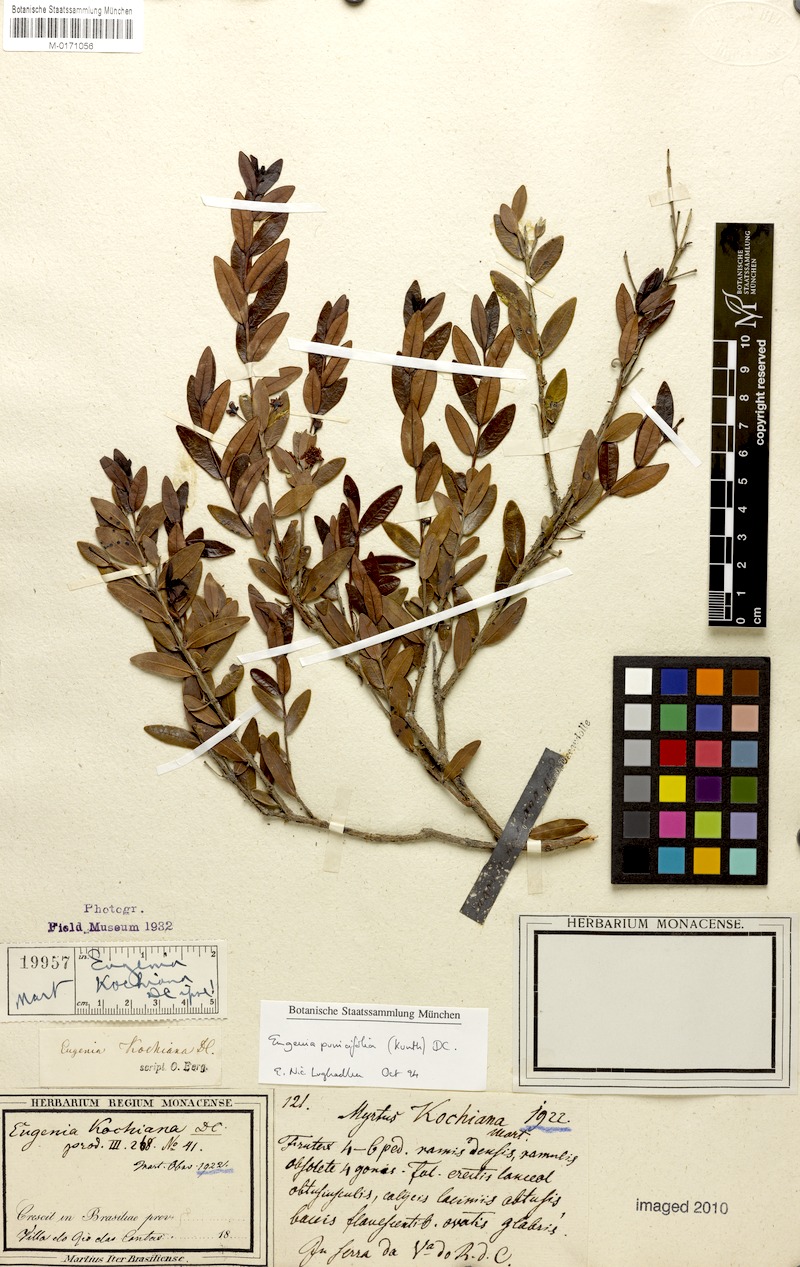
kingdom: Plantae
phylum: Tracheophyta
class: Magnoliopsida
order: Myrtales
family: Myrtaceae
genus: Eugenia
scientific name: Eugenia punicifolia
